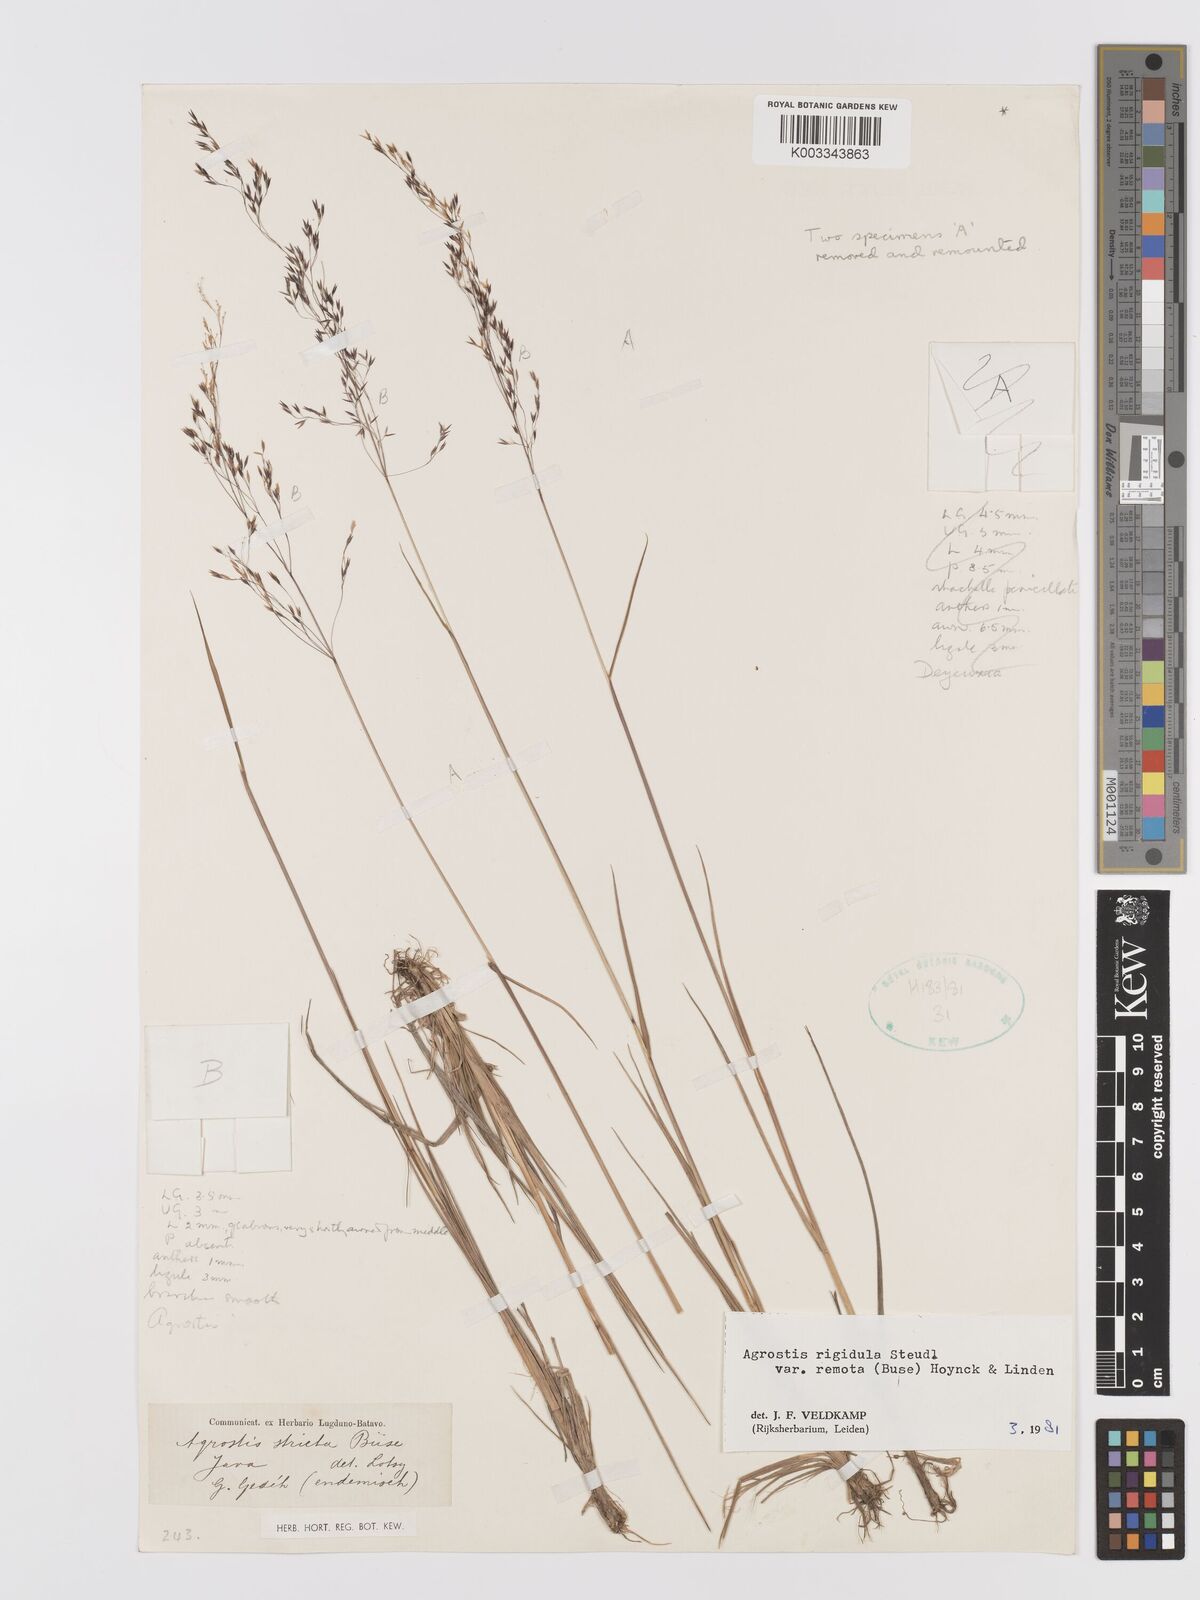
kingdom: Plantae
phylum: Tracheophyta
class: Liliopsida
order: Poales
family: Poaceae
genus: Agrostis
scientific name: Agrostis infirma
